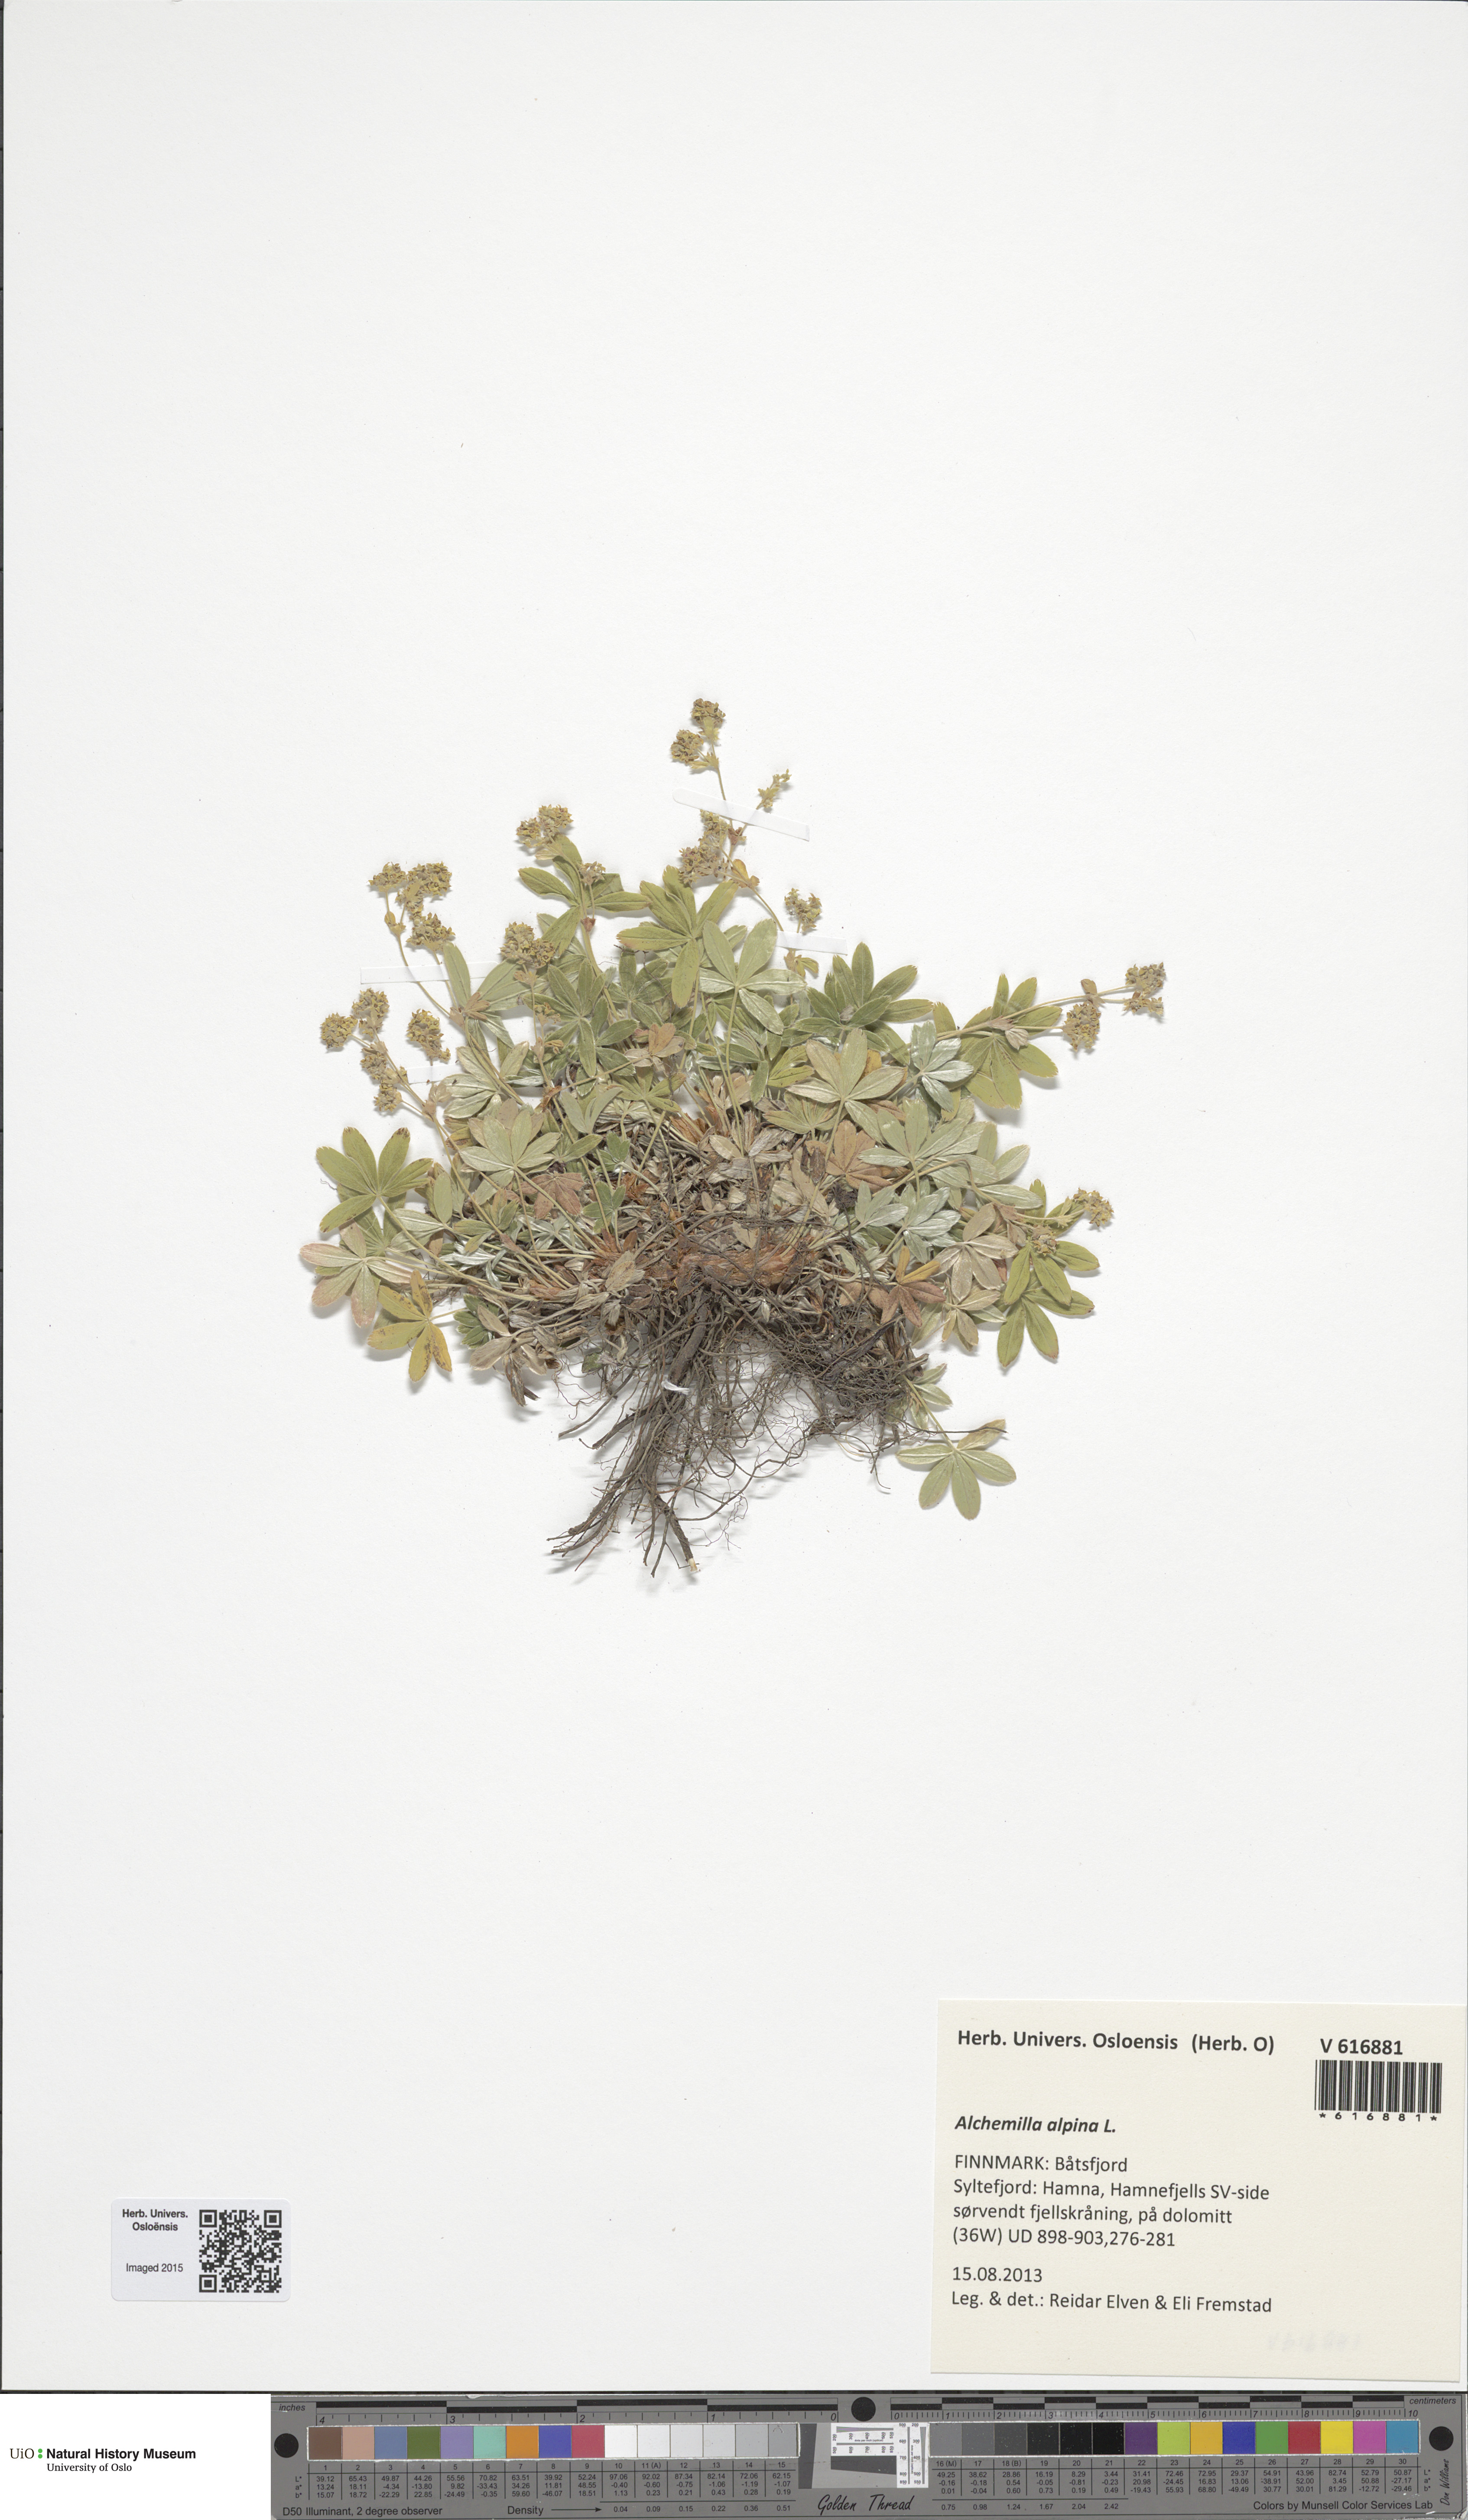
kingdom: Plantae
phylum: Tracheophyta
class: Magnoliopsida
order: Rosales
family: Rosaceae
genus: Alchemilla
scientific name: Alchemilla alpina
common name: Alpine lady's-mantle
